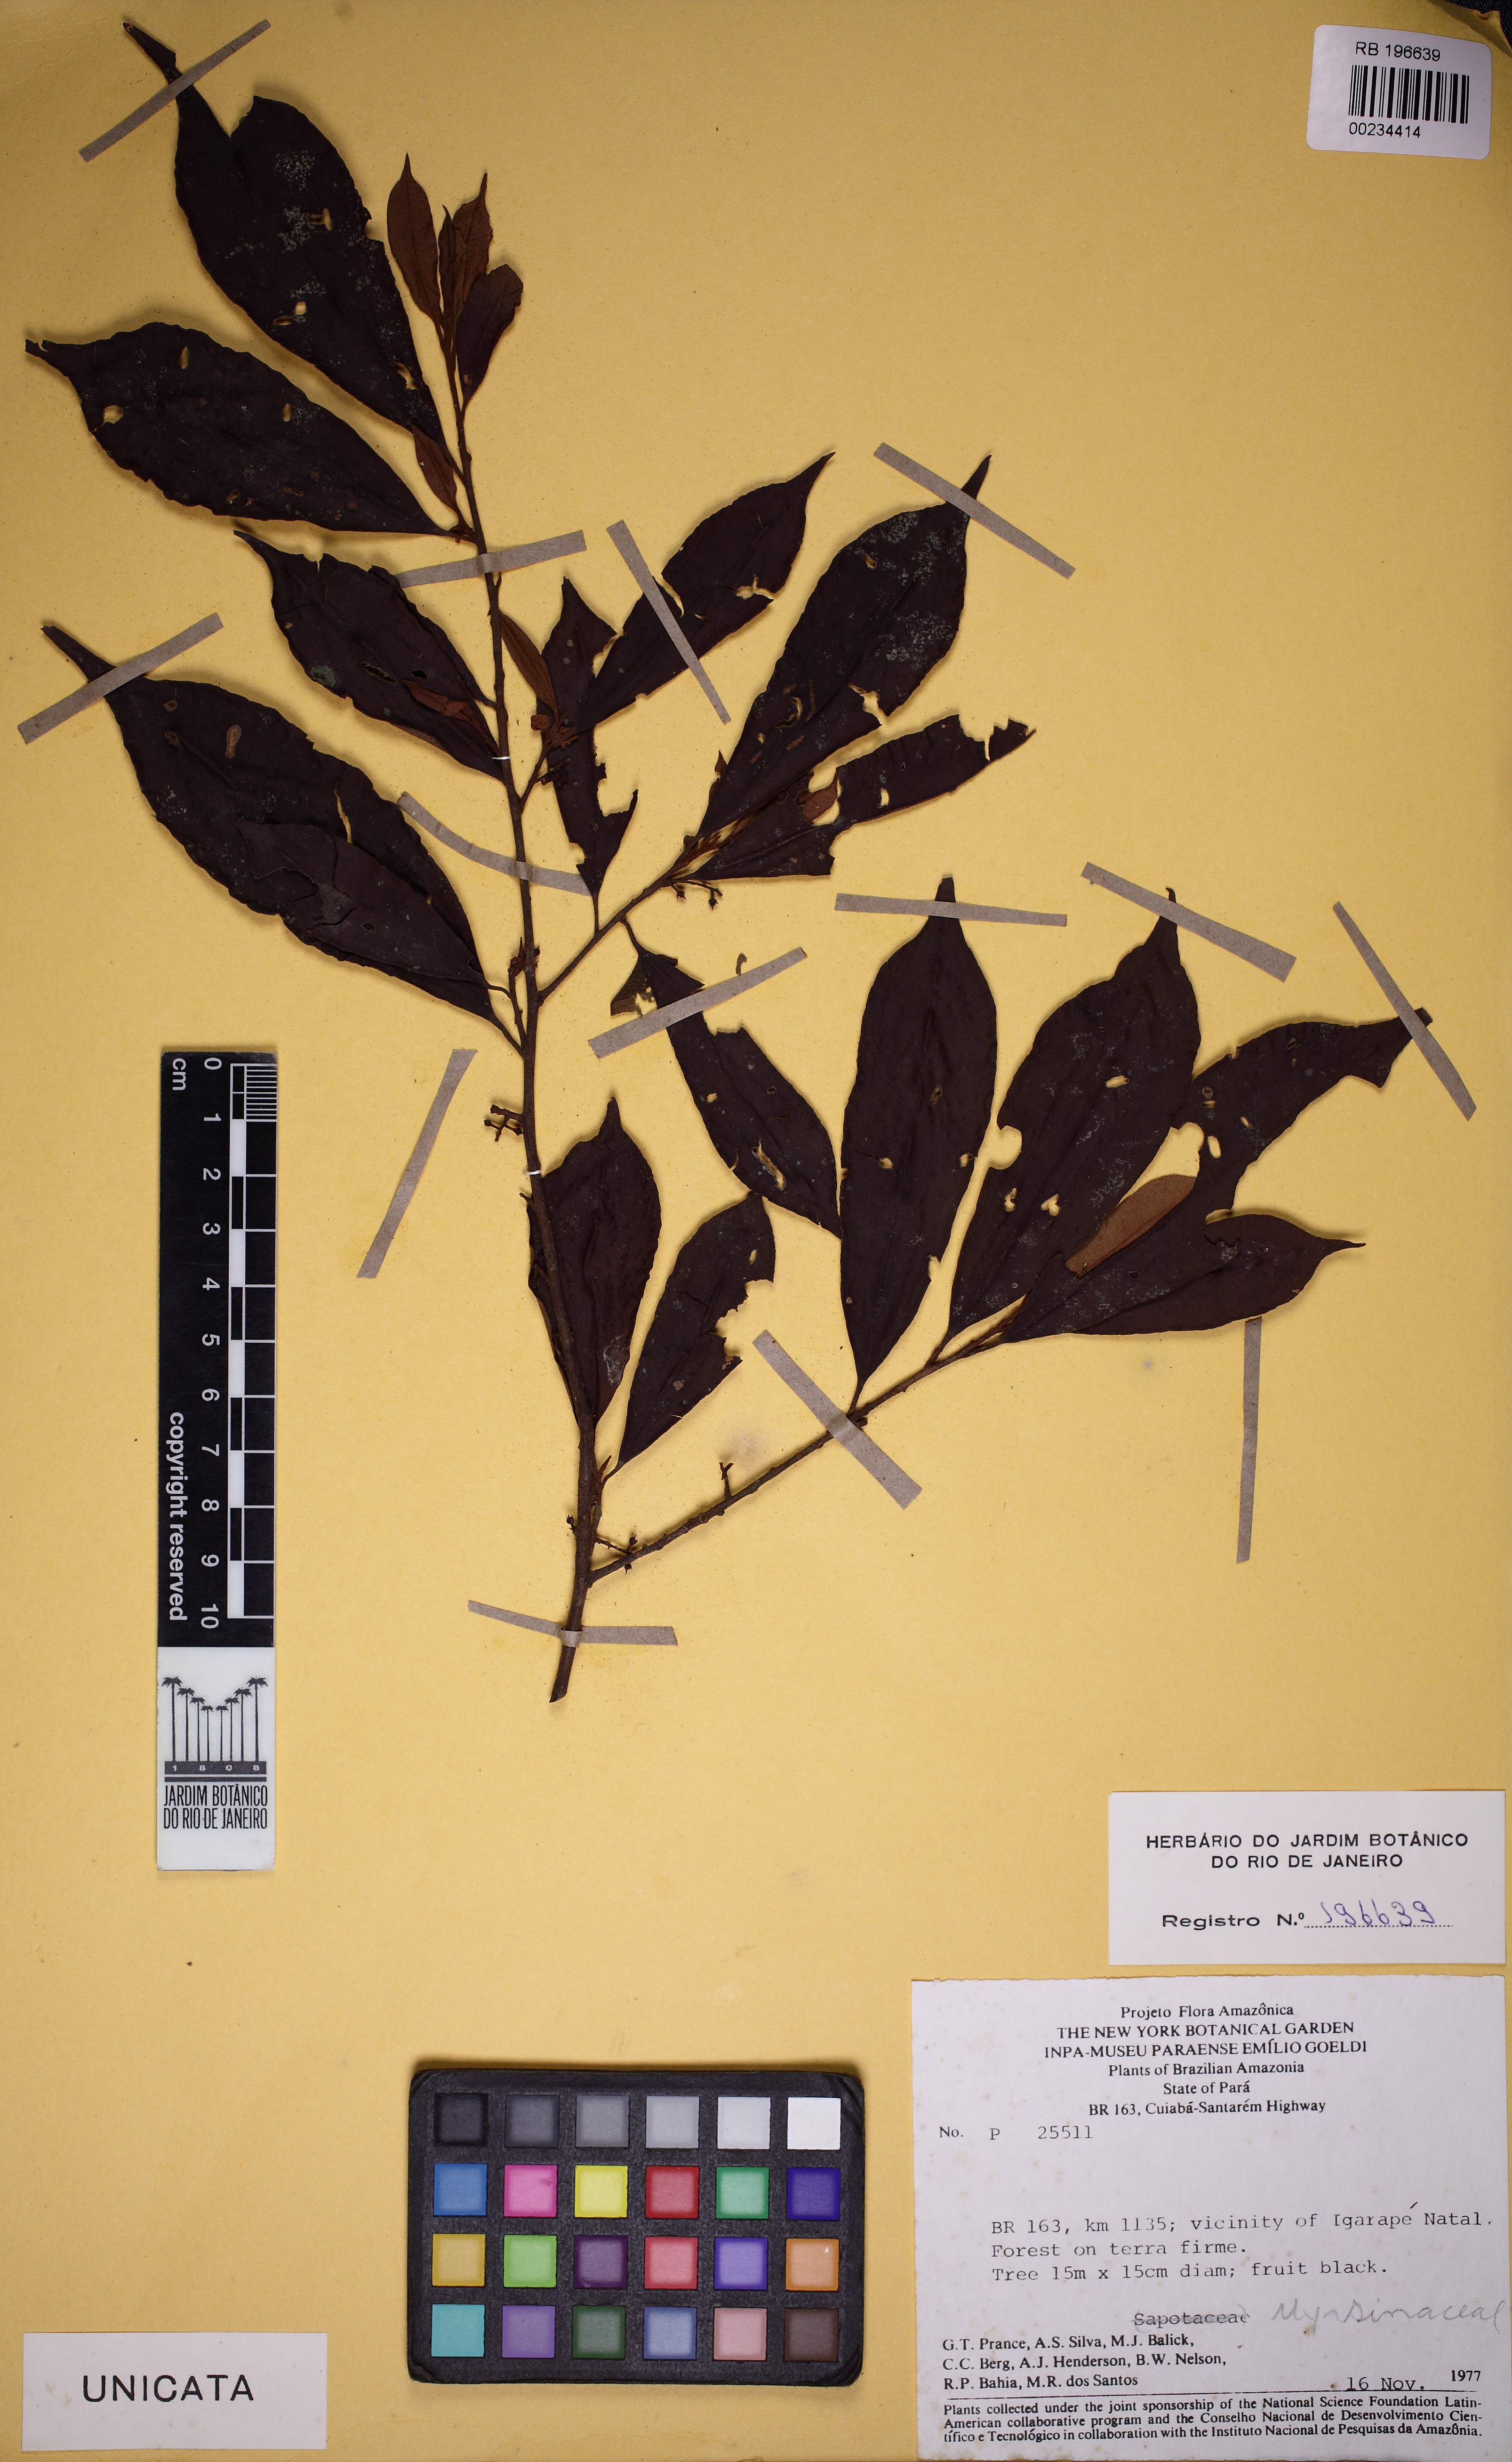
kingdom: Plantae
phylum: Tracheophyta
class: Magnoliopsida
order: Ericales
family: Primulaceae
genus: Cybianthus
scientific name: Cybianthus guyanensis
